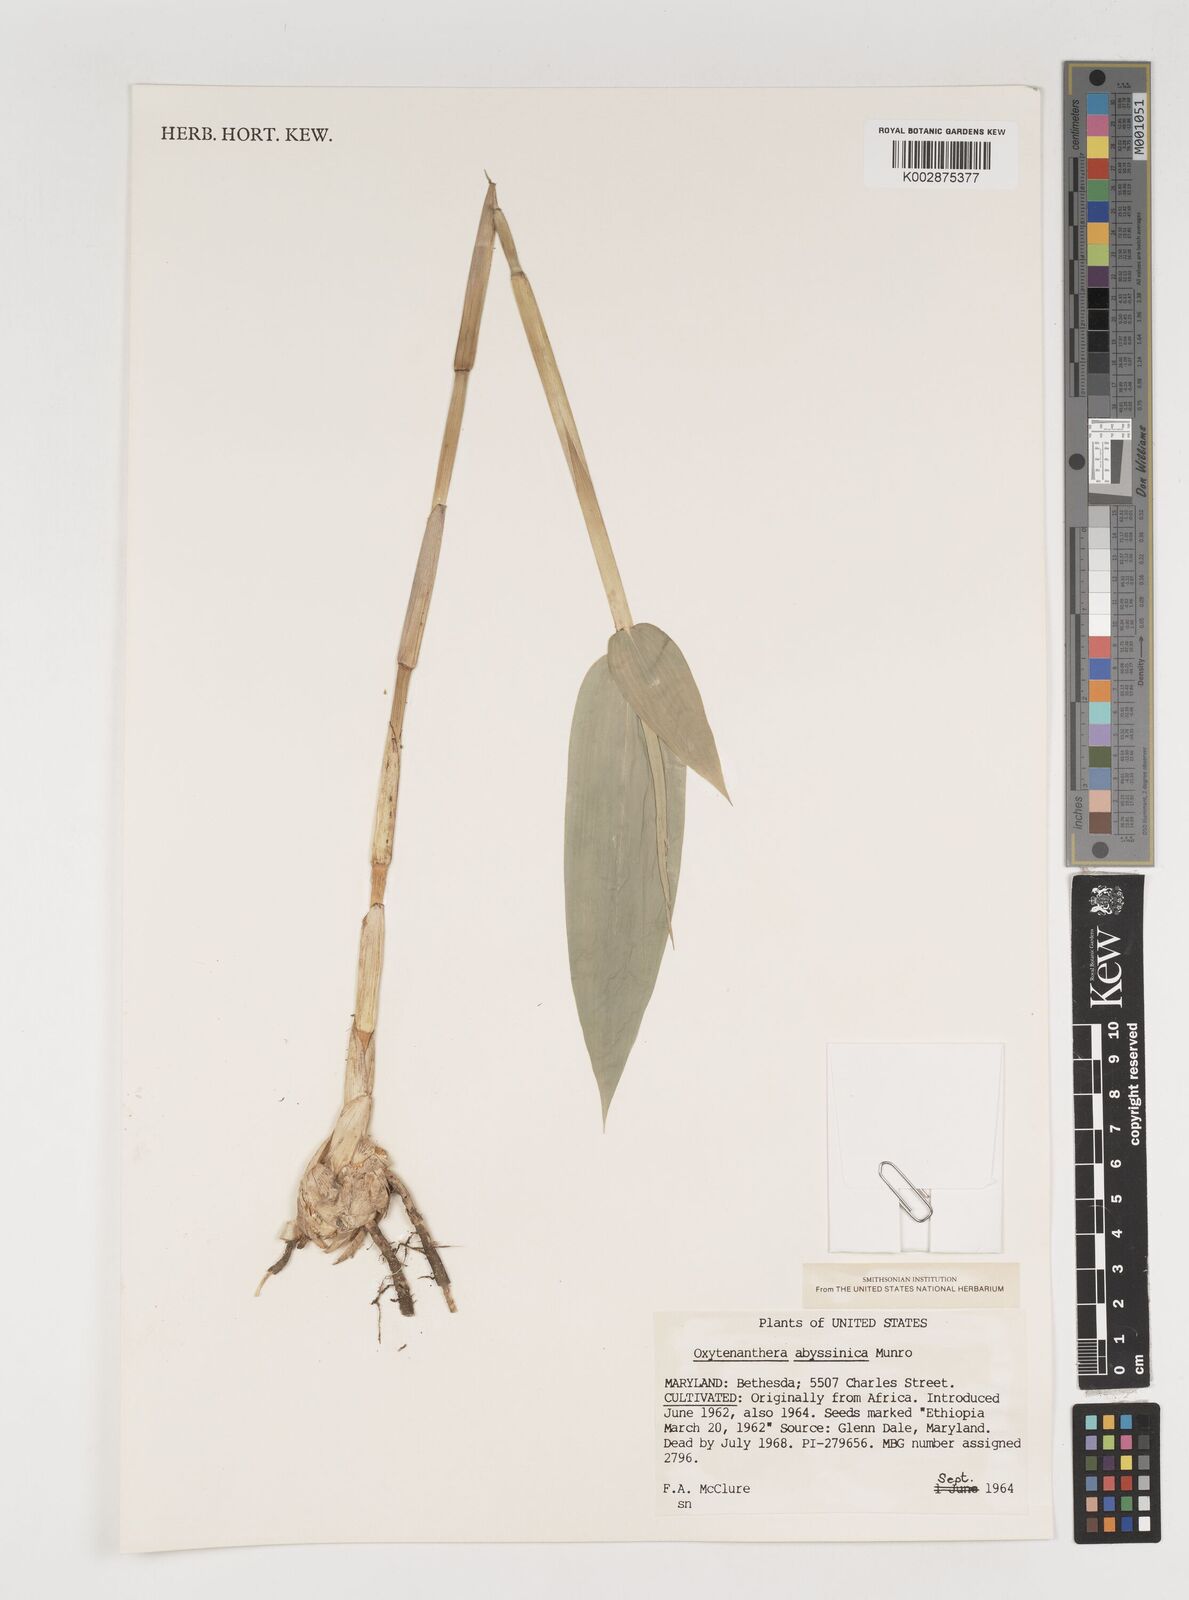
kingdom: Plantae
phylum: Tracheophyta
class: Liliopsida
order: Poales
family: Poaceae
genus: Oxytenanthera
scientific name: Oxytenanthera abyssinica
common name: Wine bamboo
